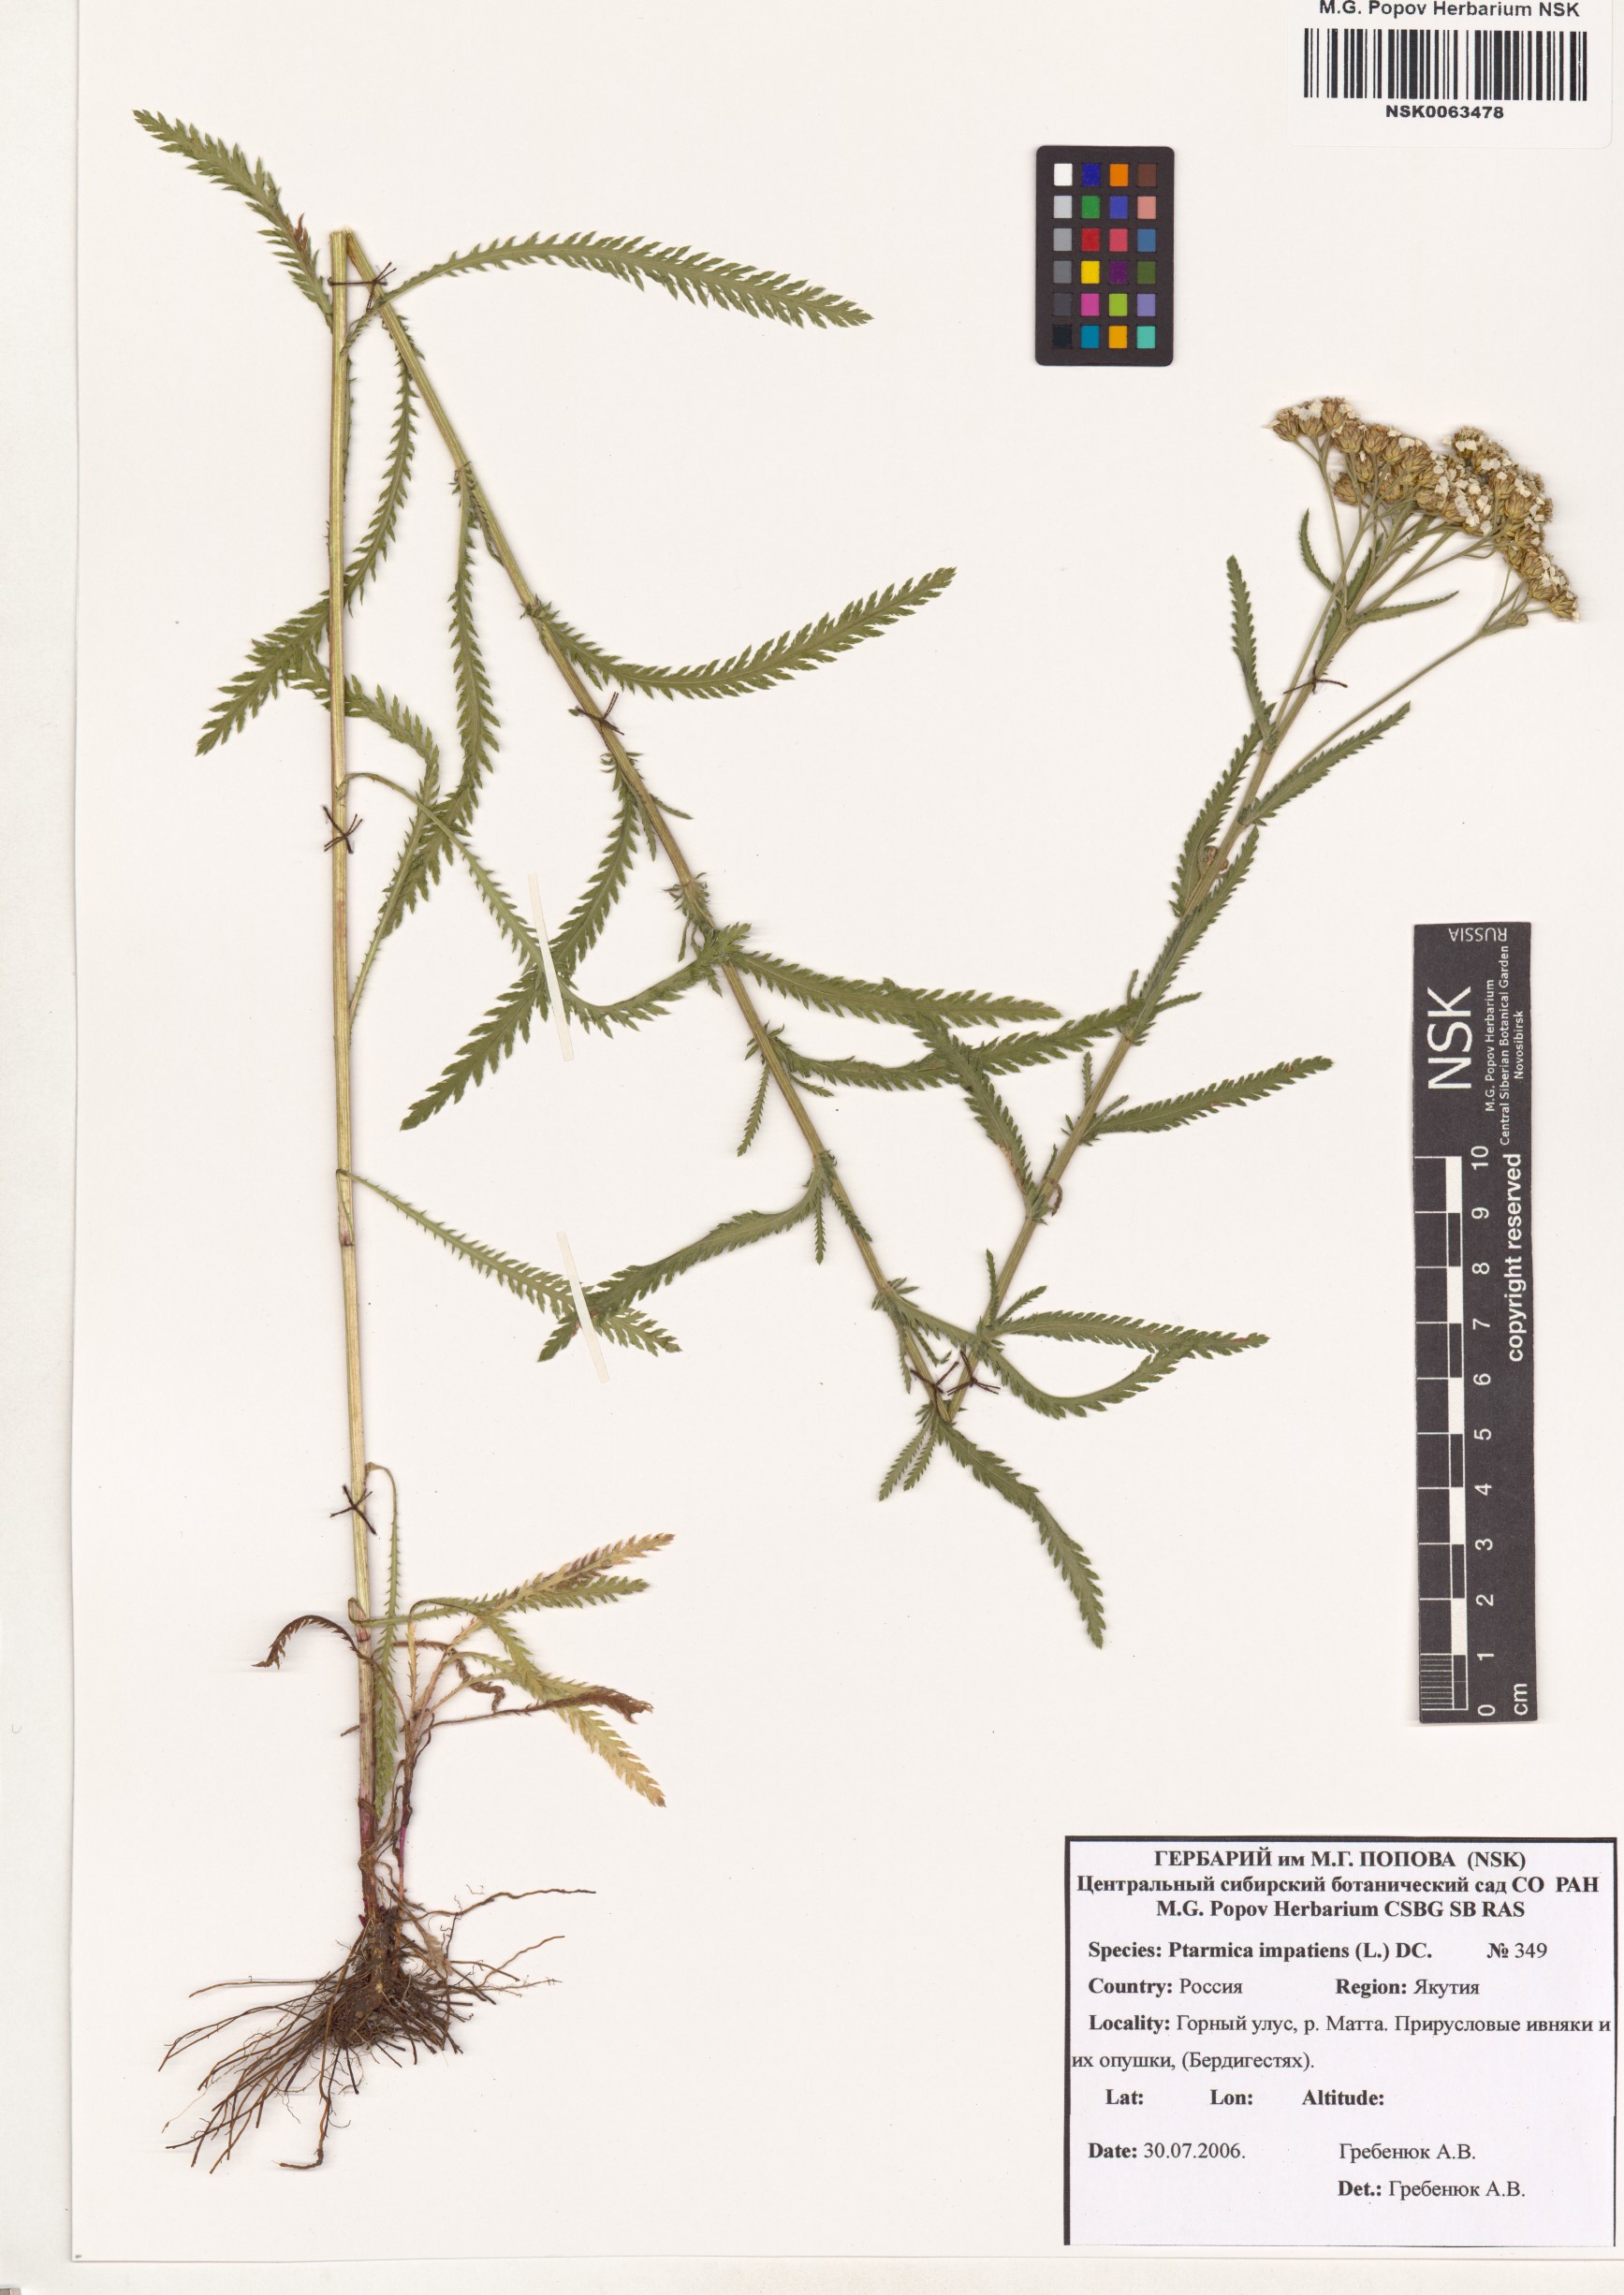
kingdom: Plantae
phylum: Tracheophyta
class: Magnoliopsida
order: Asterales
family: Asteraceae
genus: Achillea
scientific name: Achillea impatiens
